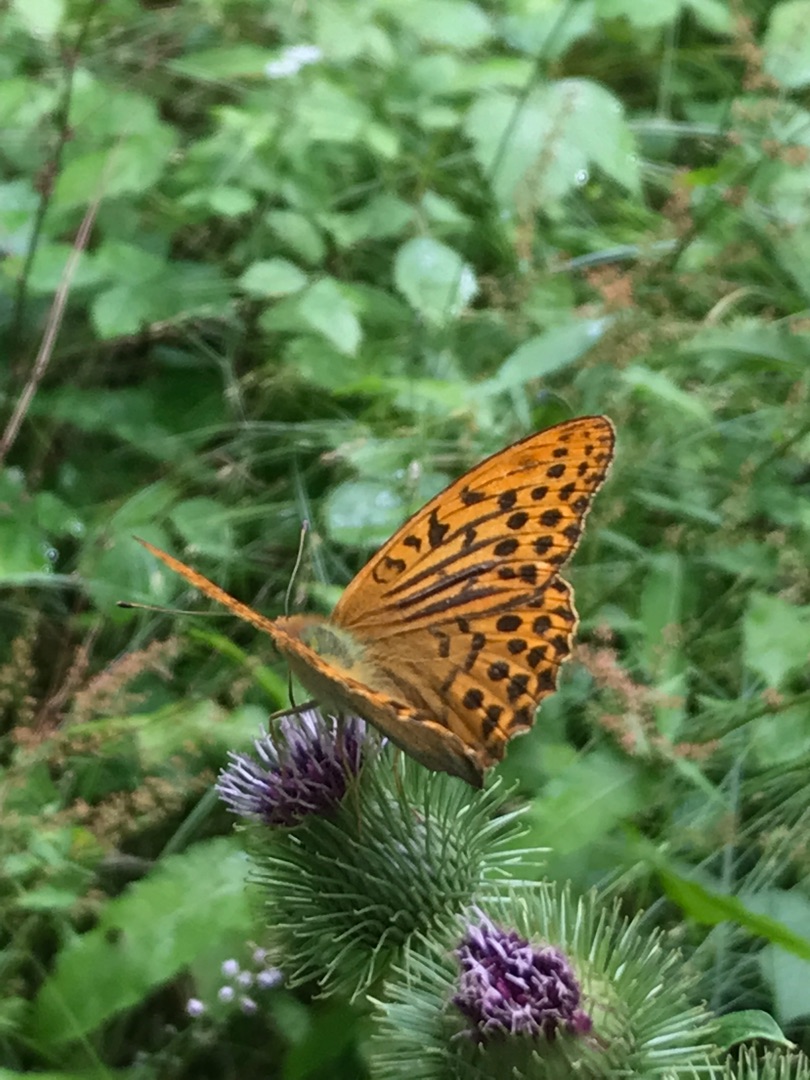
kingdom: Animalia
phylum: Arthropoda
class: Insecta
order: Lepidoptera
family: Nymphalidae
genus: Argynnis
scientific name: Argynnis paphia
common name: Kejserkåbe
